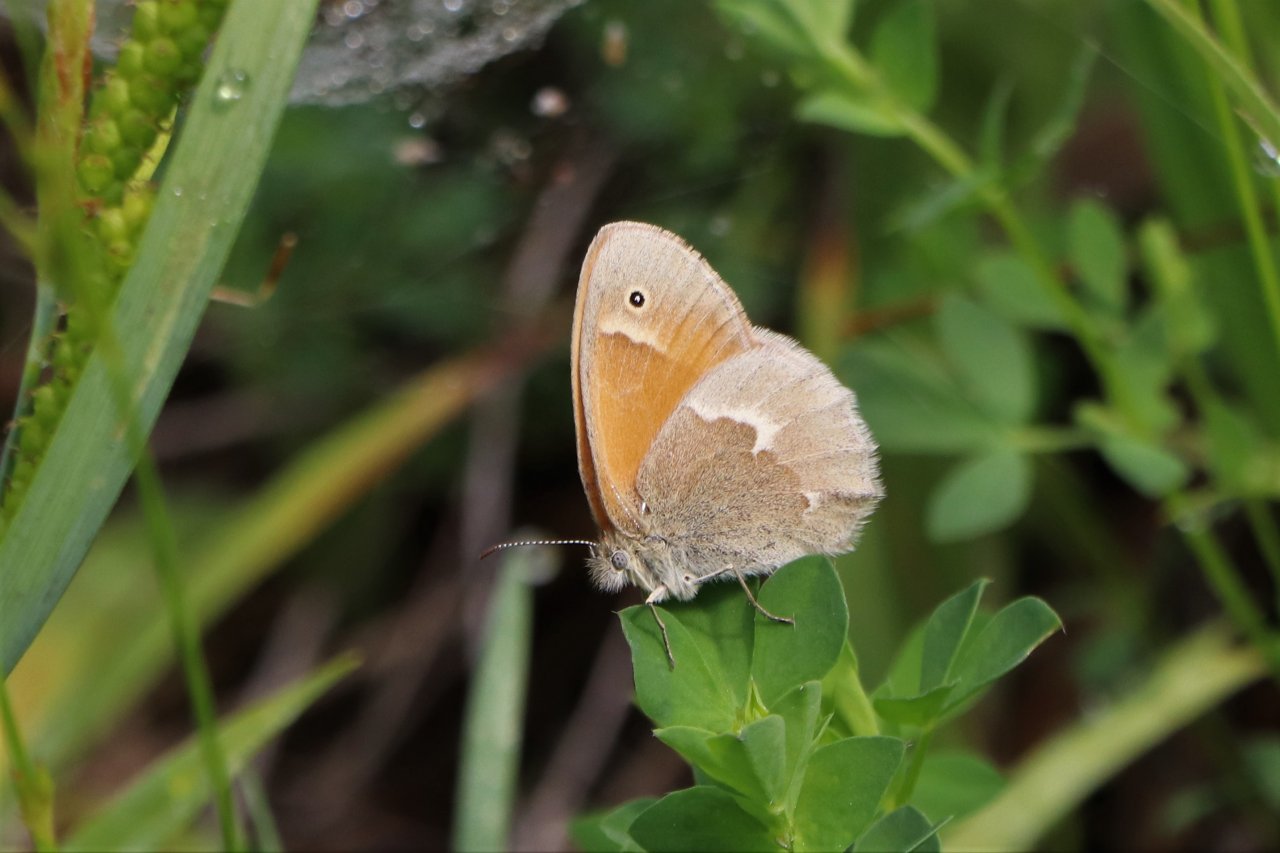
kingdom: Animalia
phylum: Arthropoda
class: Insecta
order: Lepidoptera
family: Nymphalidae
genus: Coenonympha
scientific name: Coenonympha tullia
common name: Large Heath
